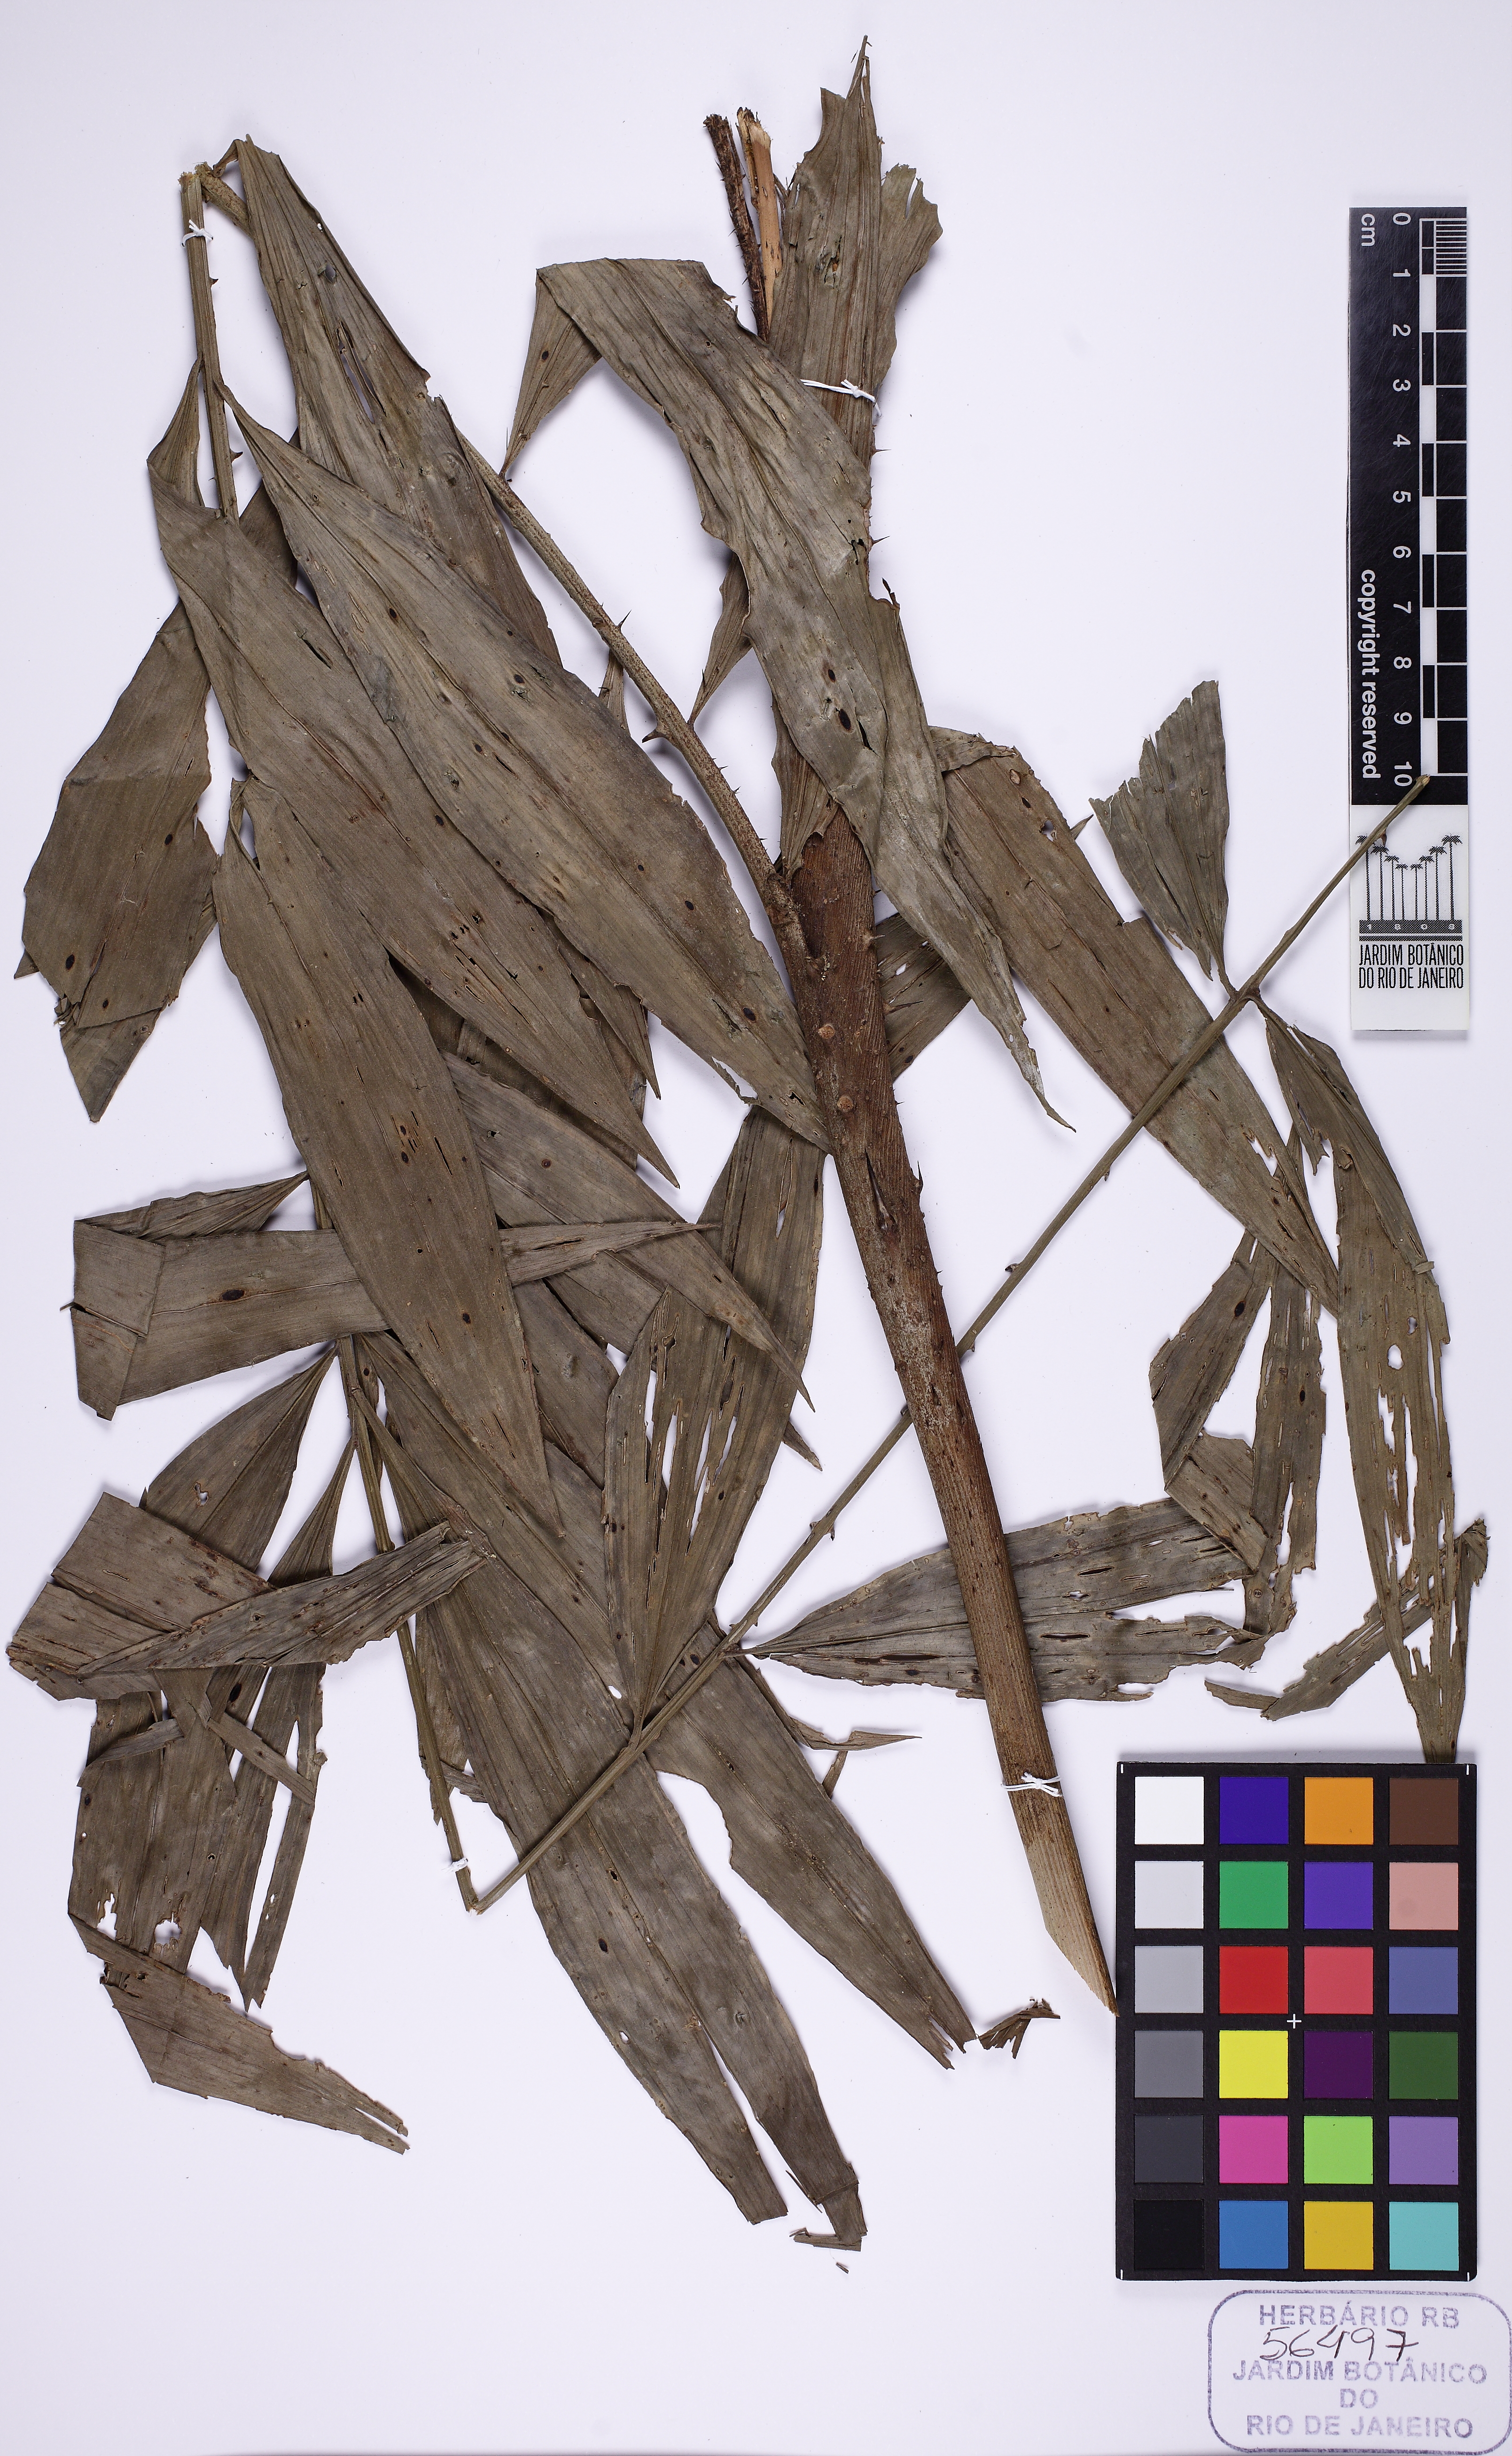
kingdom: Plantae
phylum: Tracheophyta
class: Liliopsida
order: Arecales
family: Arecaceae
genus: Desmoncus
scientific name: Desmoncus polyacanthos
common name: Suriname bramble palm
